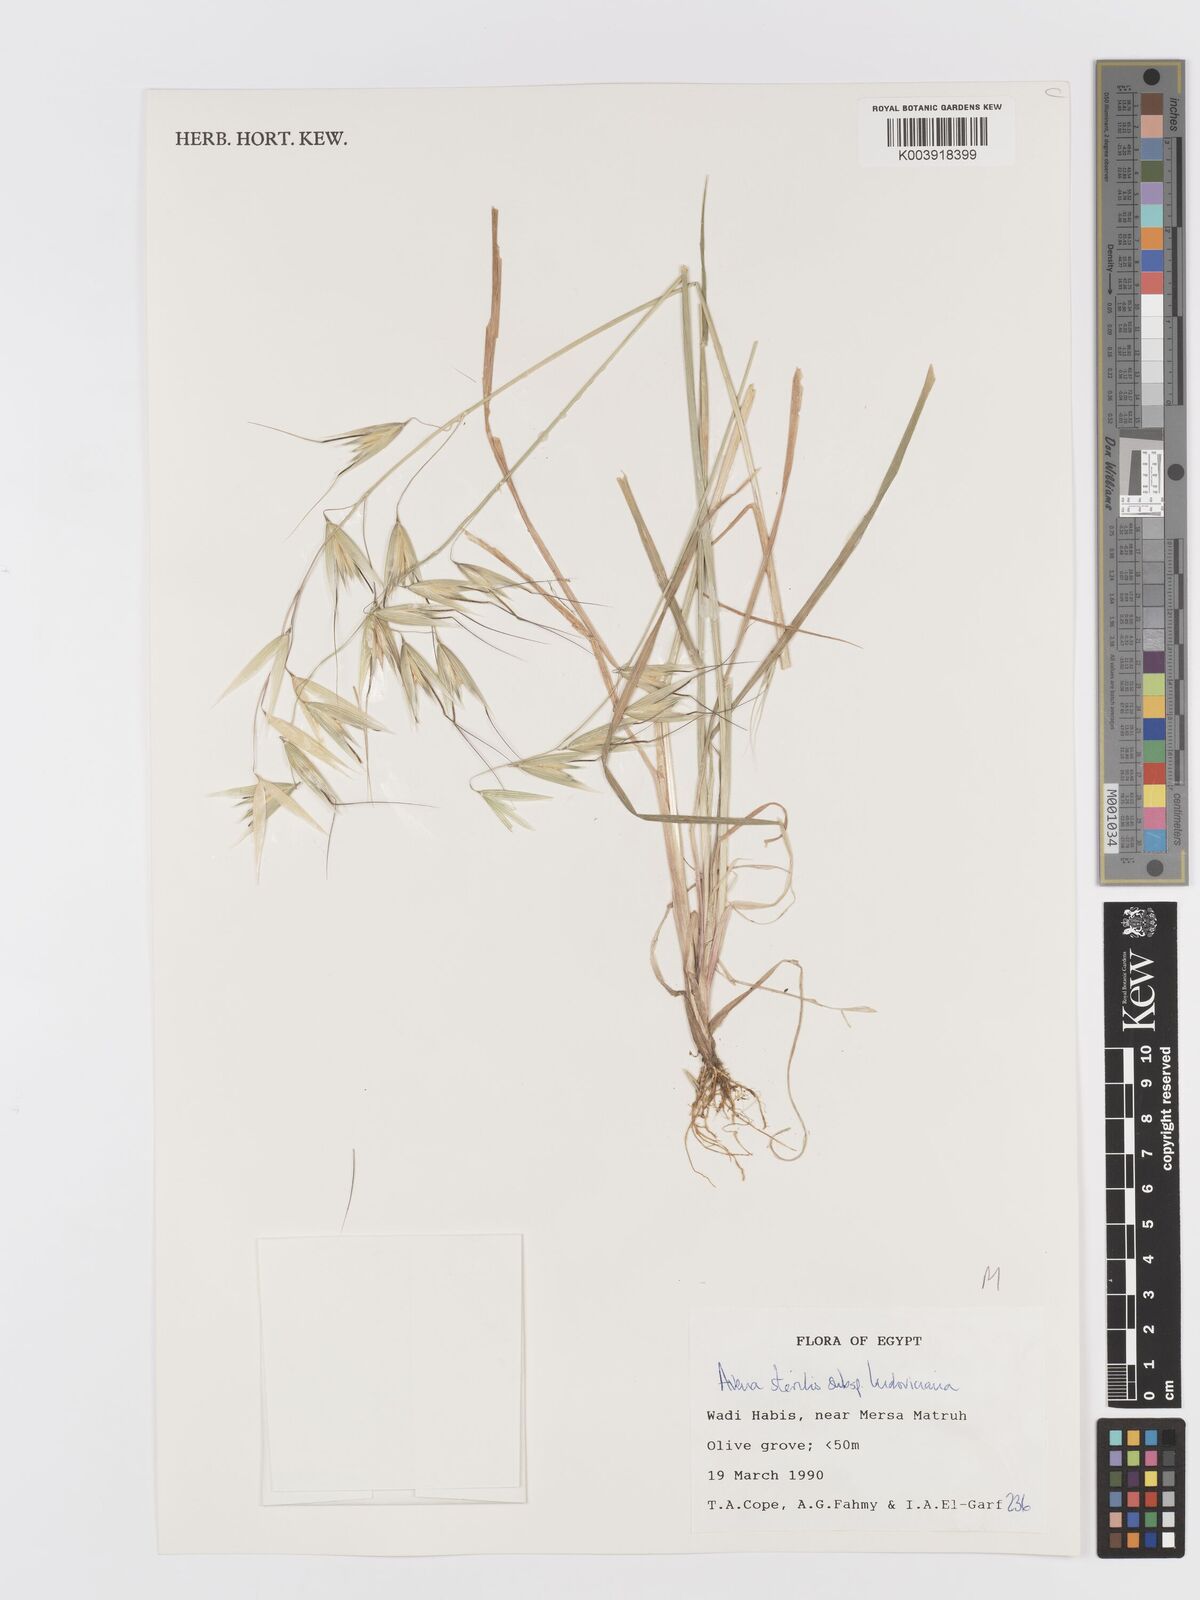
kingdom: Plantae
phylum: Tracheophyta
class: Liliopsida
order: Poales
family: Poaceae
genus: Avena
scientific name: Avena sterilis
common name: Animated oat
